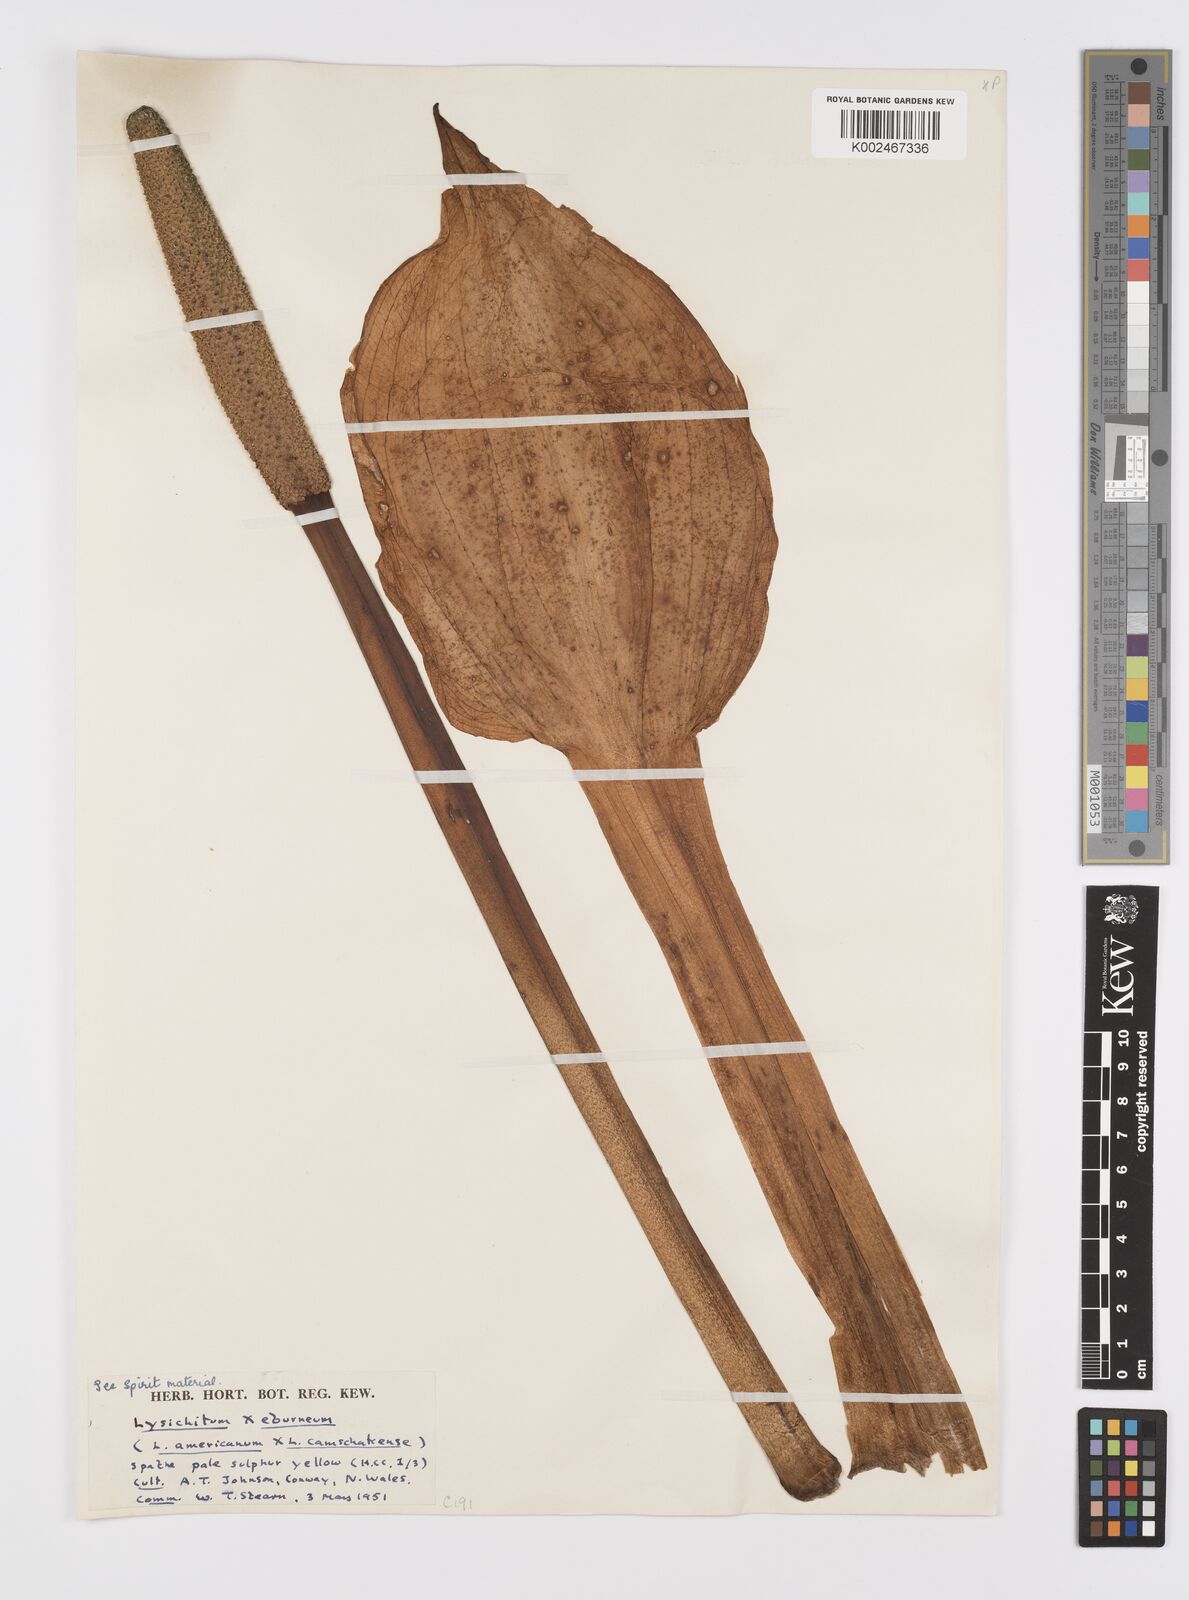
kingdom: Plantae
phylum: Tracheophyta
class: Liliopsida
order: Alismatales
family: Araceae
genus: Lysichiton
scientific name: Lysichiton
